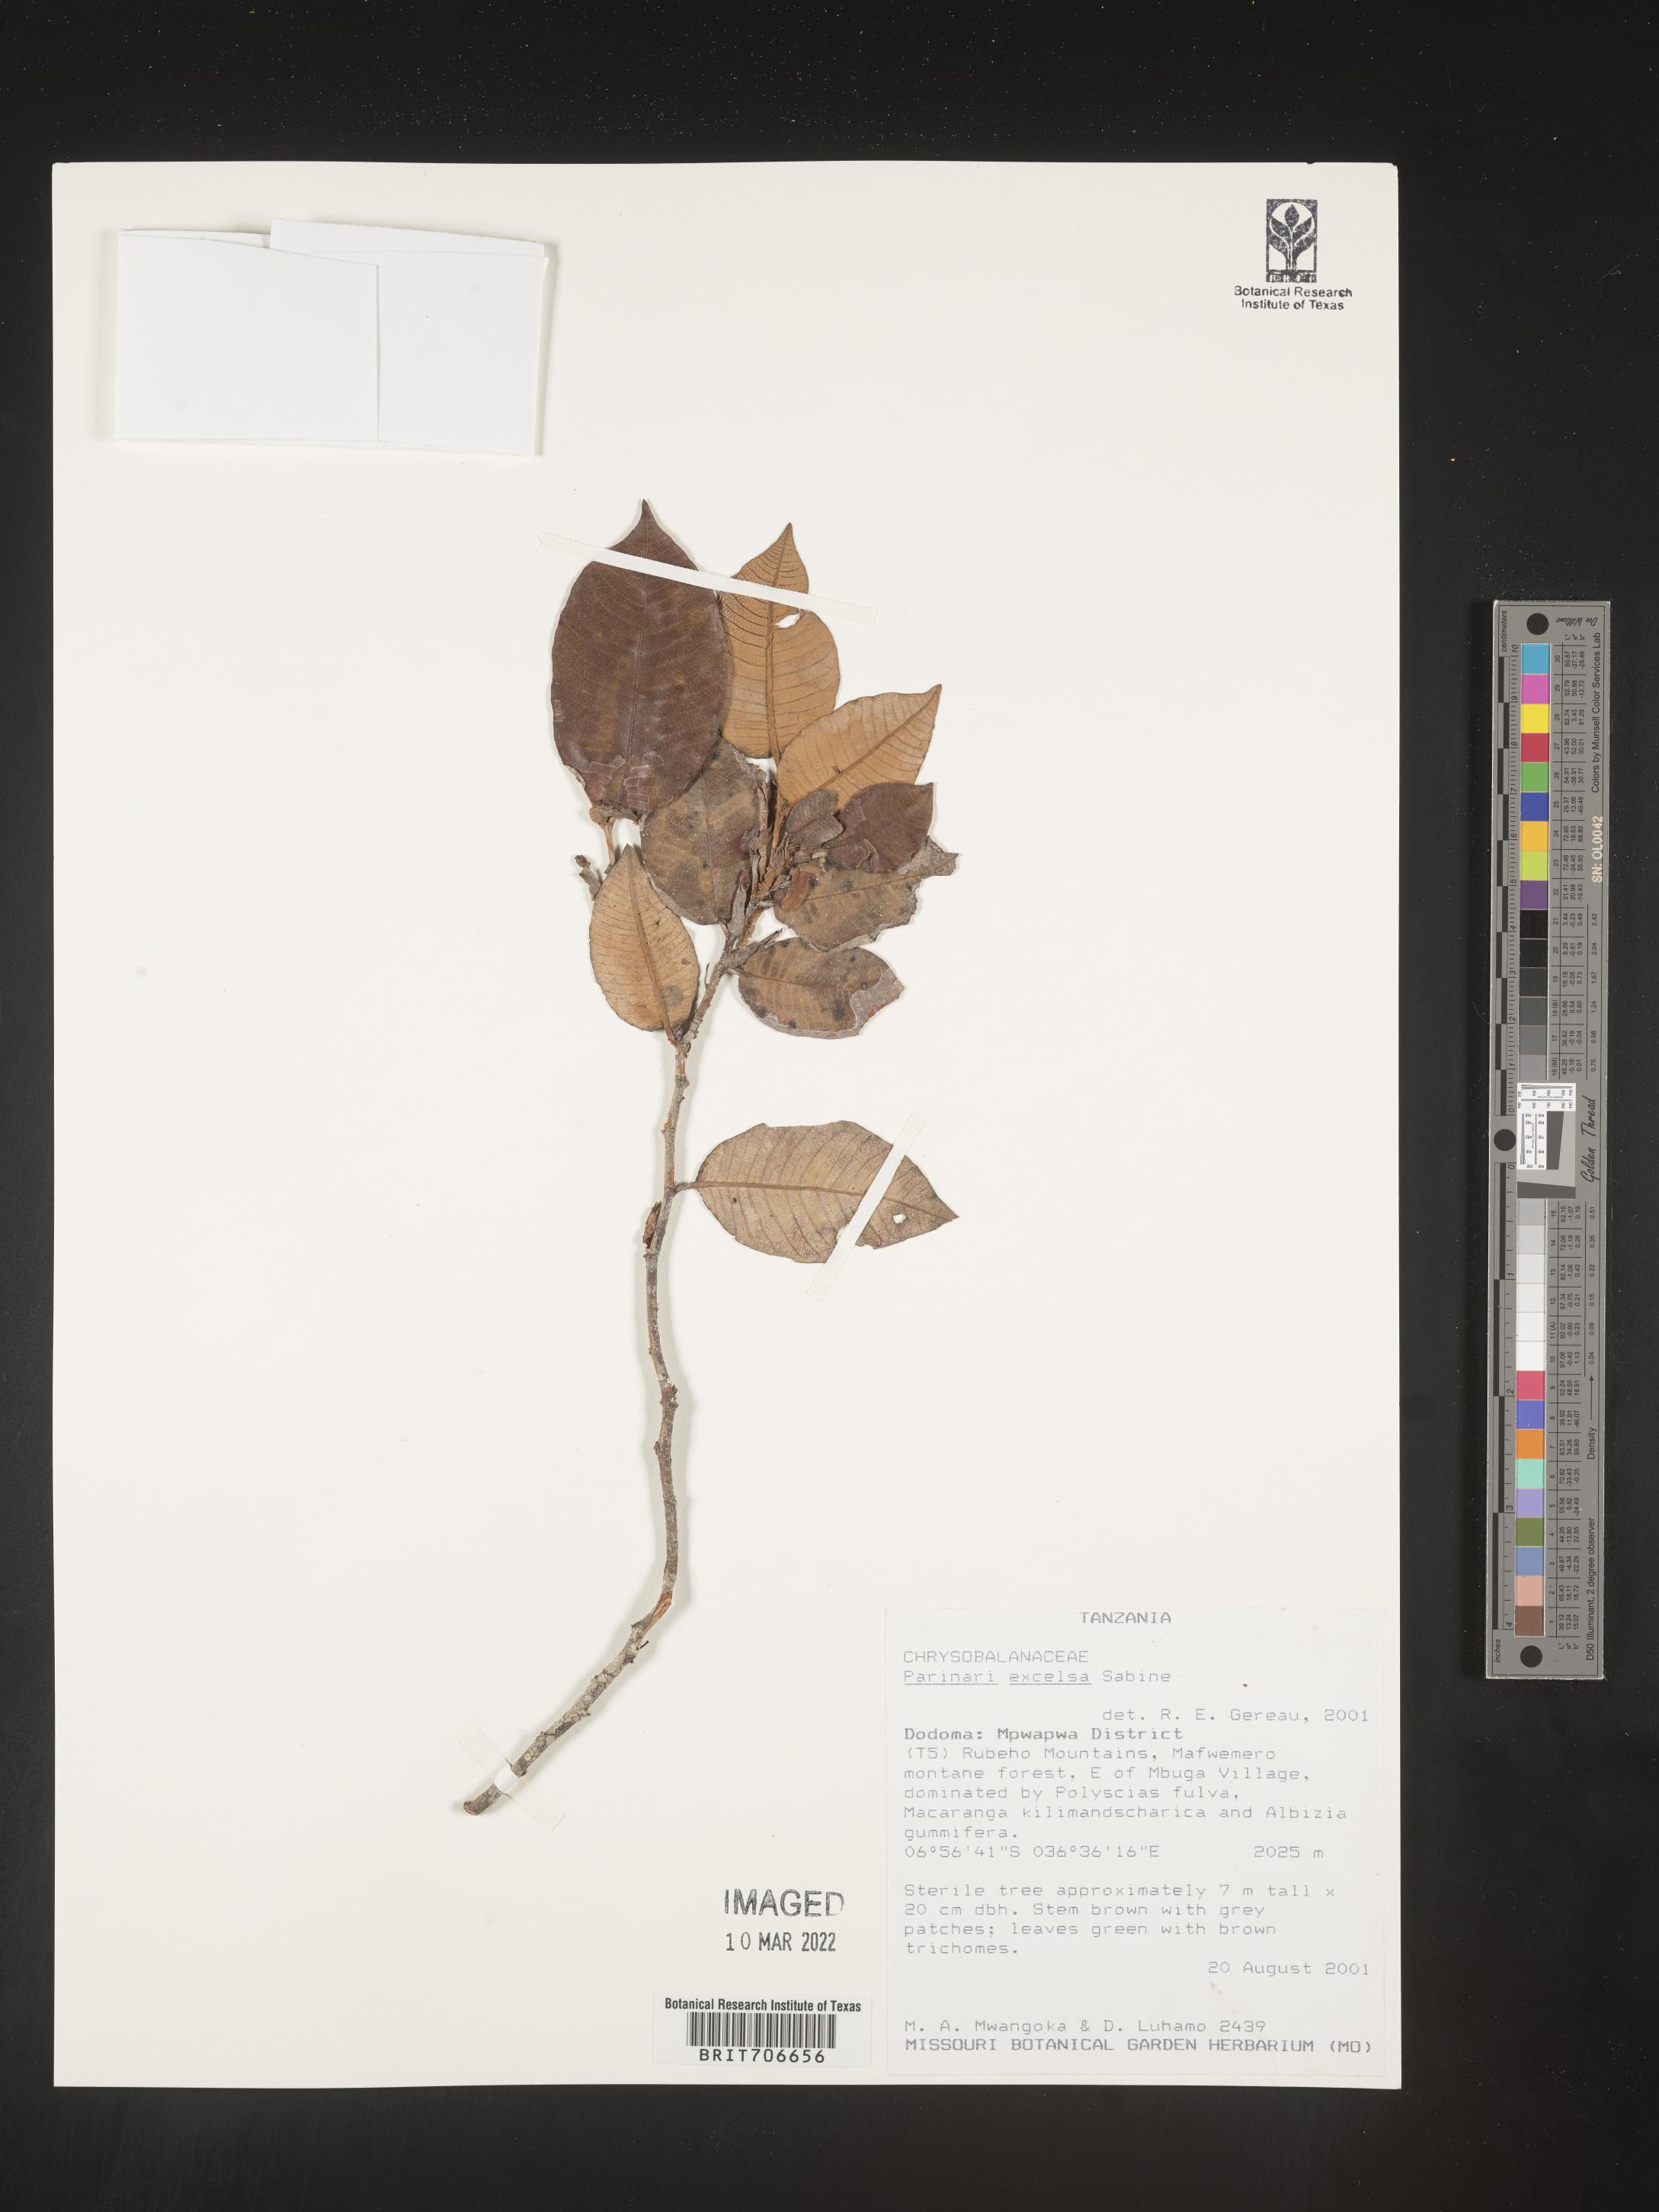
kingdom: Plantae
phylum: Tracheophyta
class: Magnoliopsida
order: Malpighiales
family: Chrysobalanaceae
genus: Parinari
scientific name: Parinari
